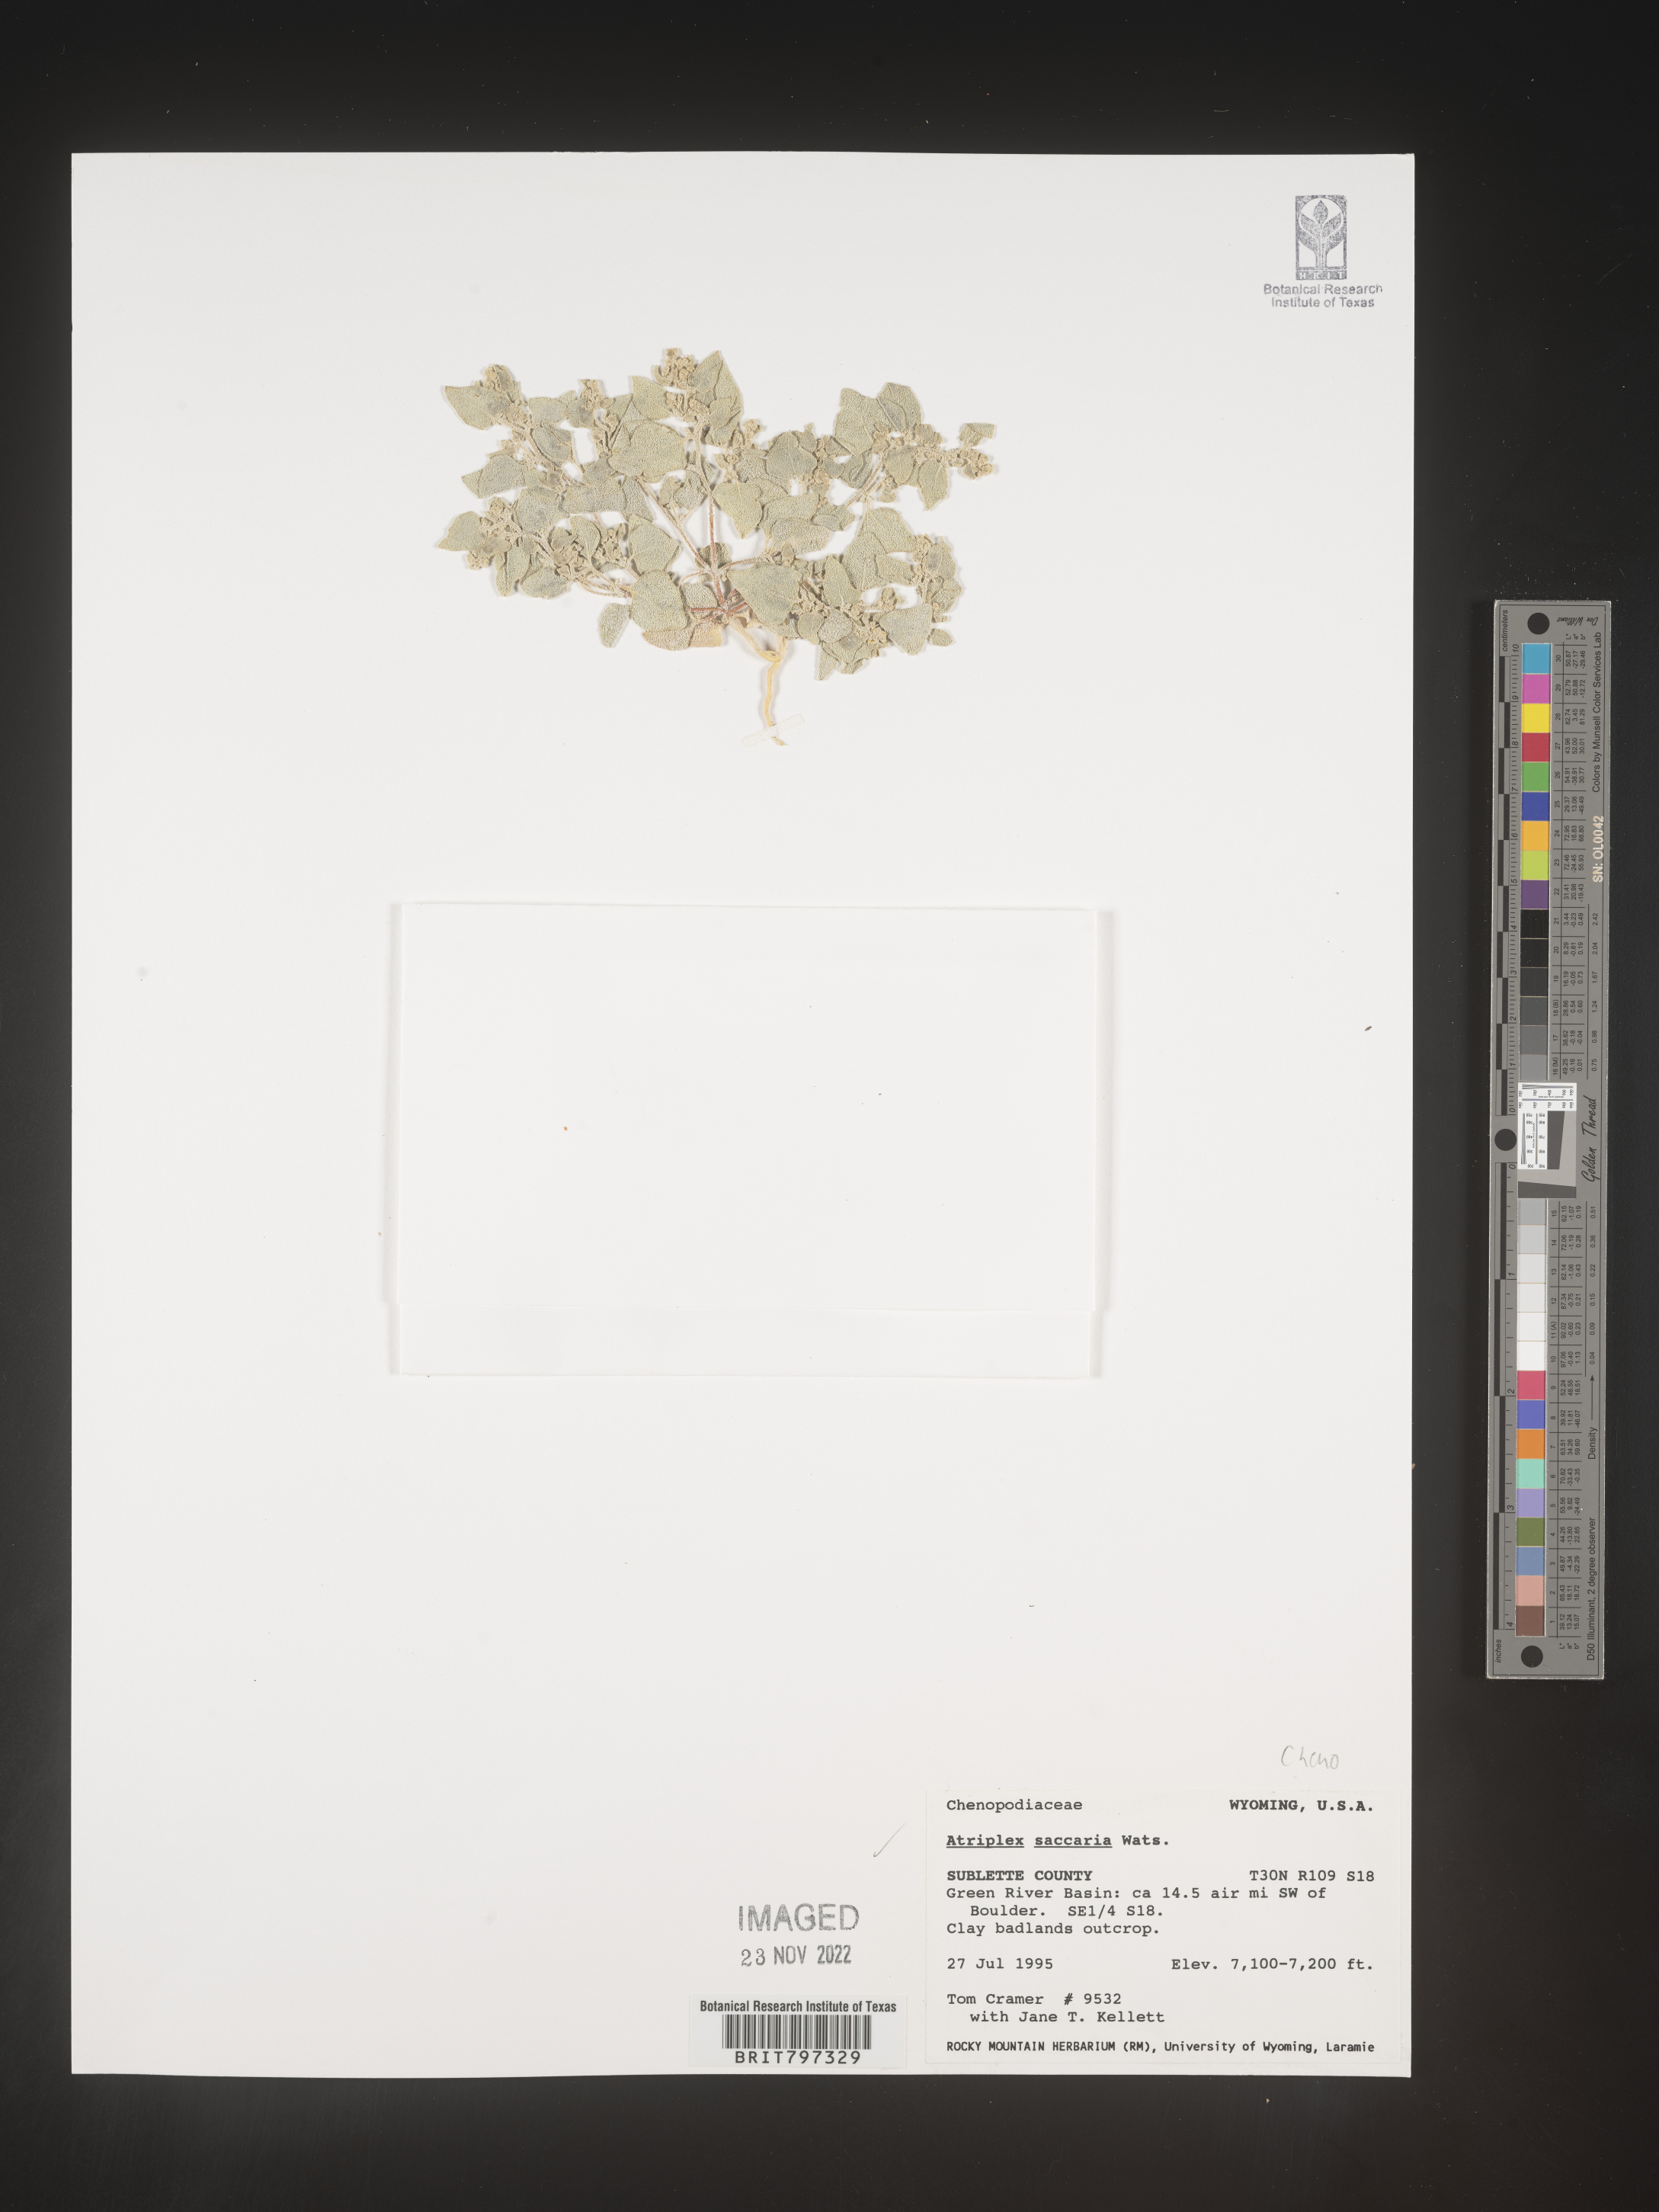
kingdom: Plantae
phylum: Tracheophyta
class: Magnoliopsida
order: Caryophyllales
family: Amaranthaceae
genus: Atriplex
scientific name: Atriplex
